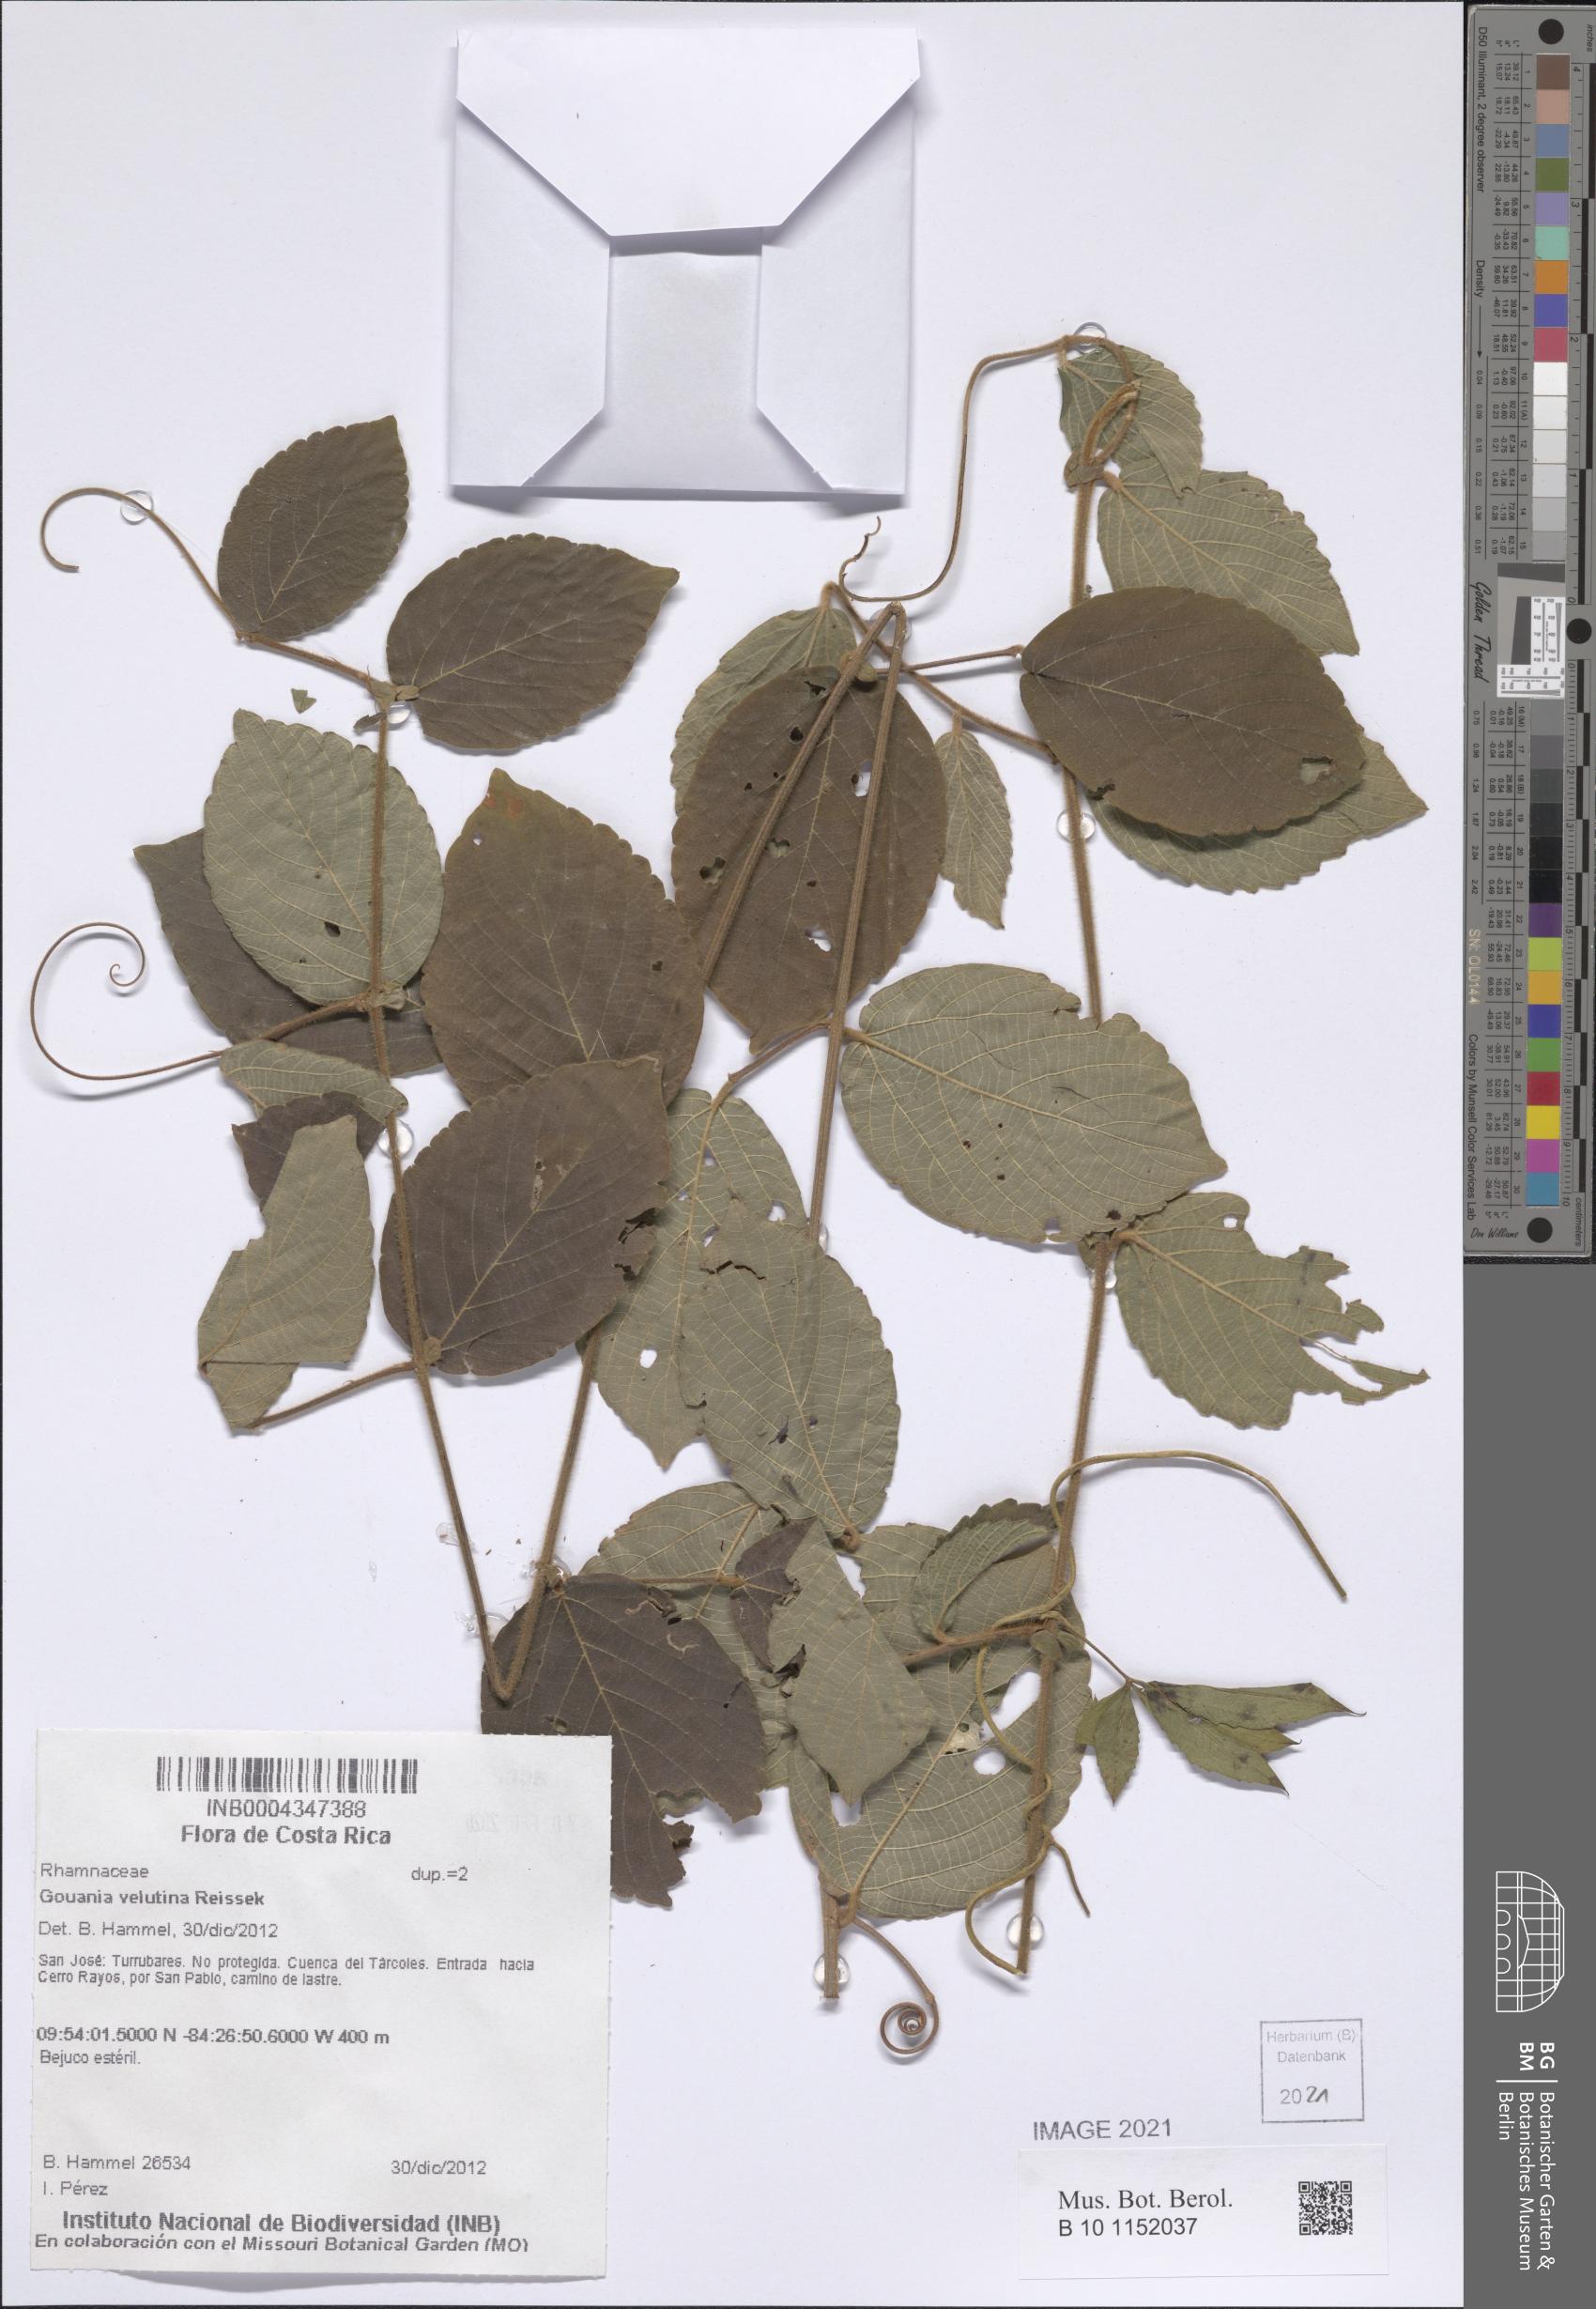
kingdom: Plantae
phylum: Tracheophyta
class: Magnoliopsida
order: Rosales
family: Rhamnaceae
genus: Gouania
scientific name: Gouania velutina
